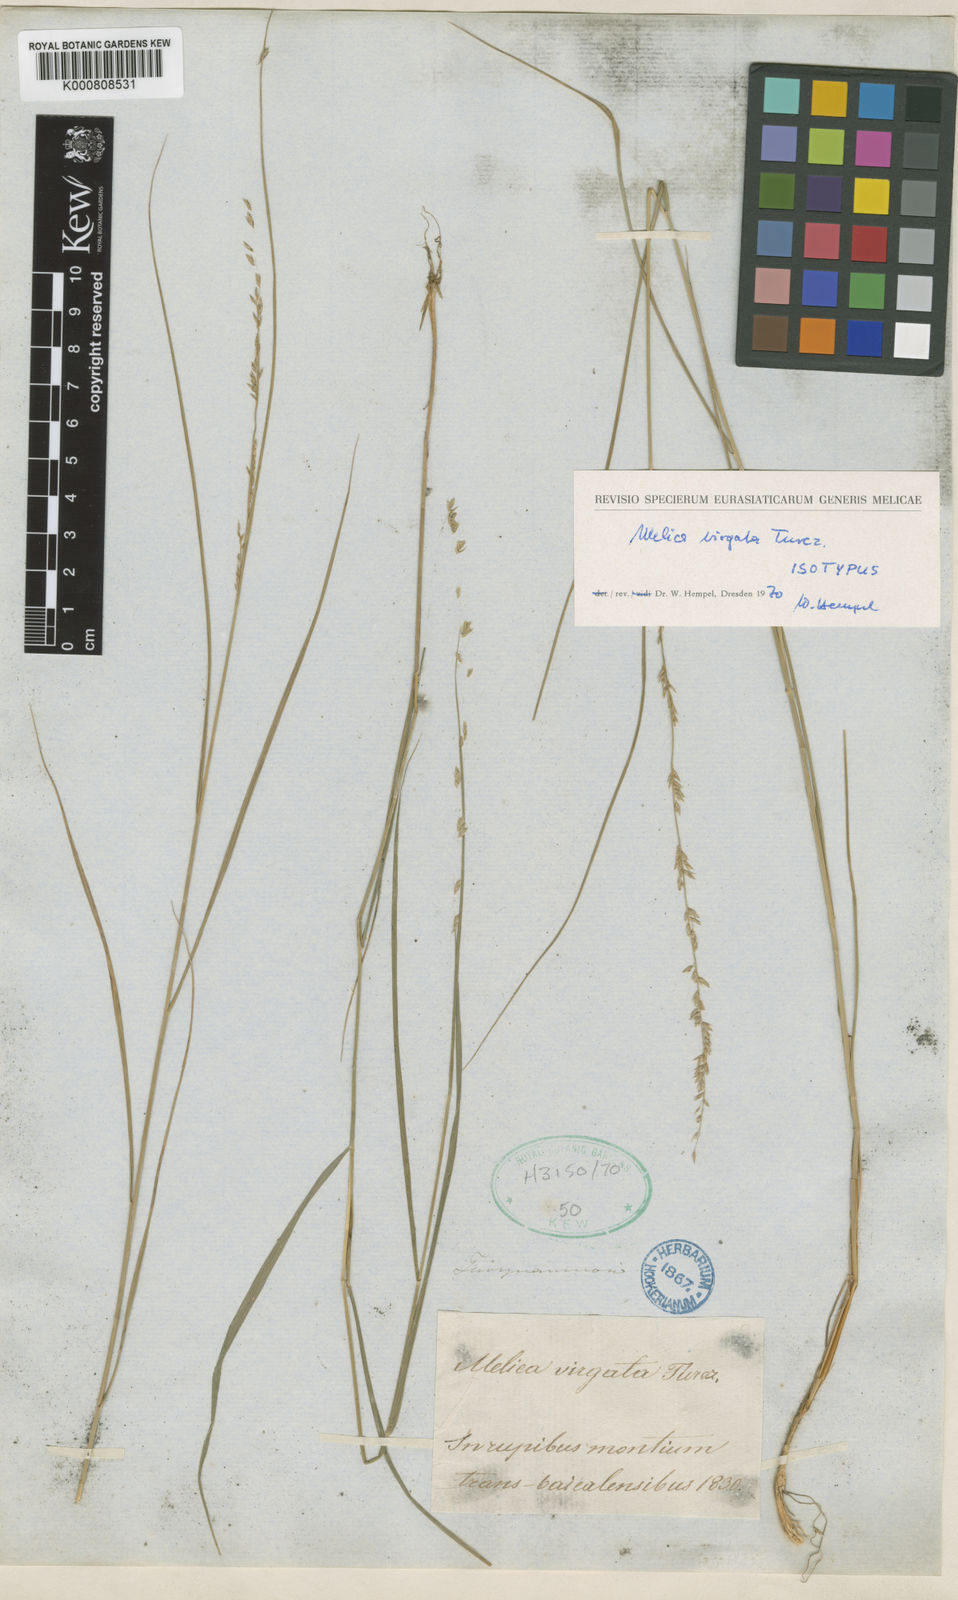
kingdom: Plantae
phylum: Tracheophyta
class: Liliopsida
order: Poales
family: Poaceae
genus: Melica
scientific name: Melica virgata
